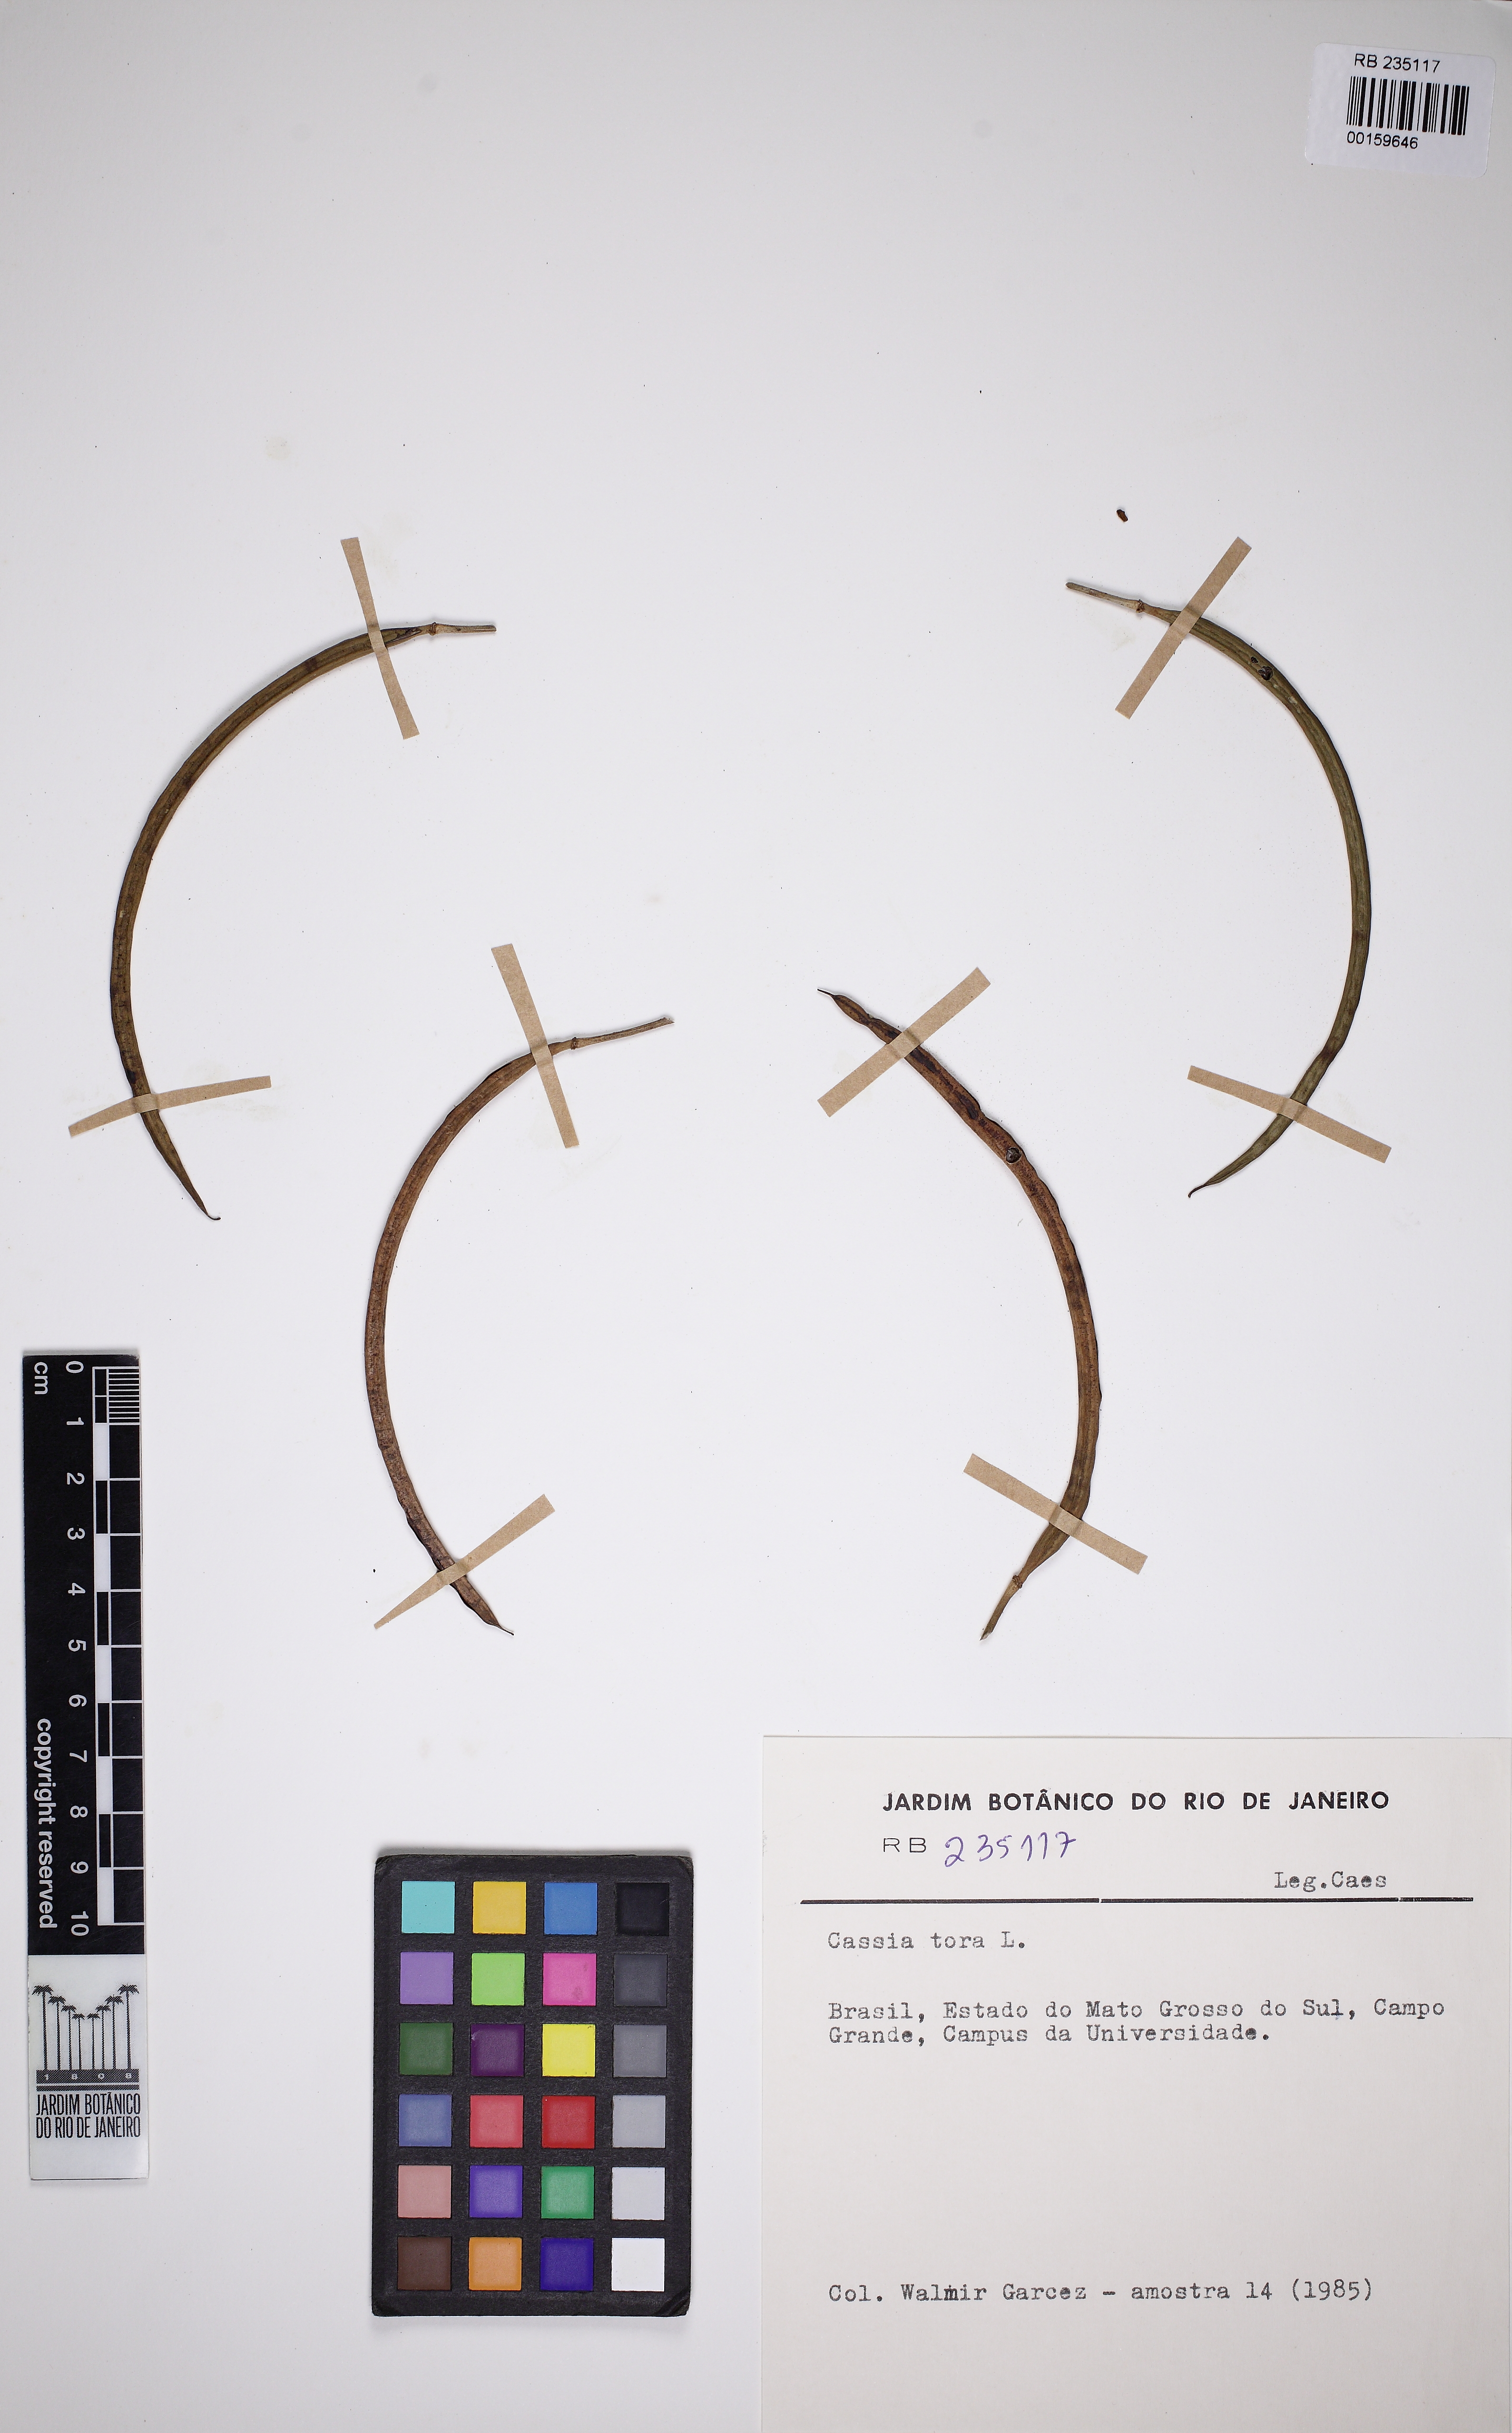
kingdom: Plantae
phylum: Tracheophyta
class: Magnoliopsida
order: Fabales
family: Fabaceae
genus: Senna
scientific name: Senna tora
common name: Sickle senna
